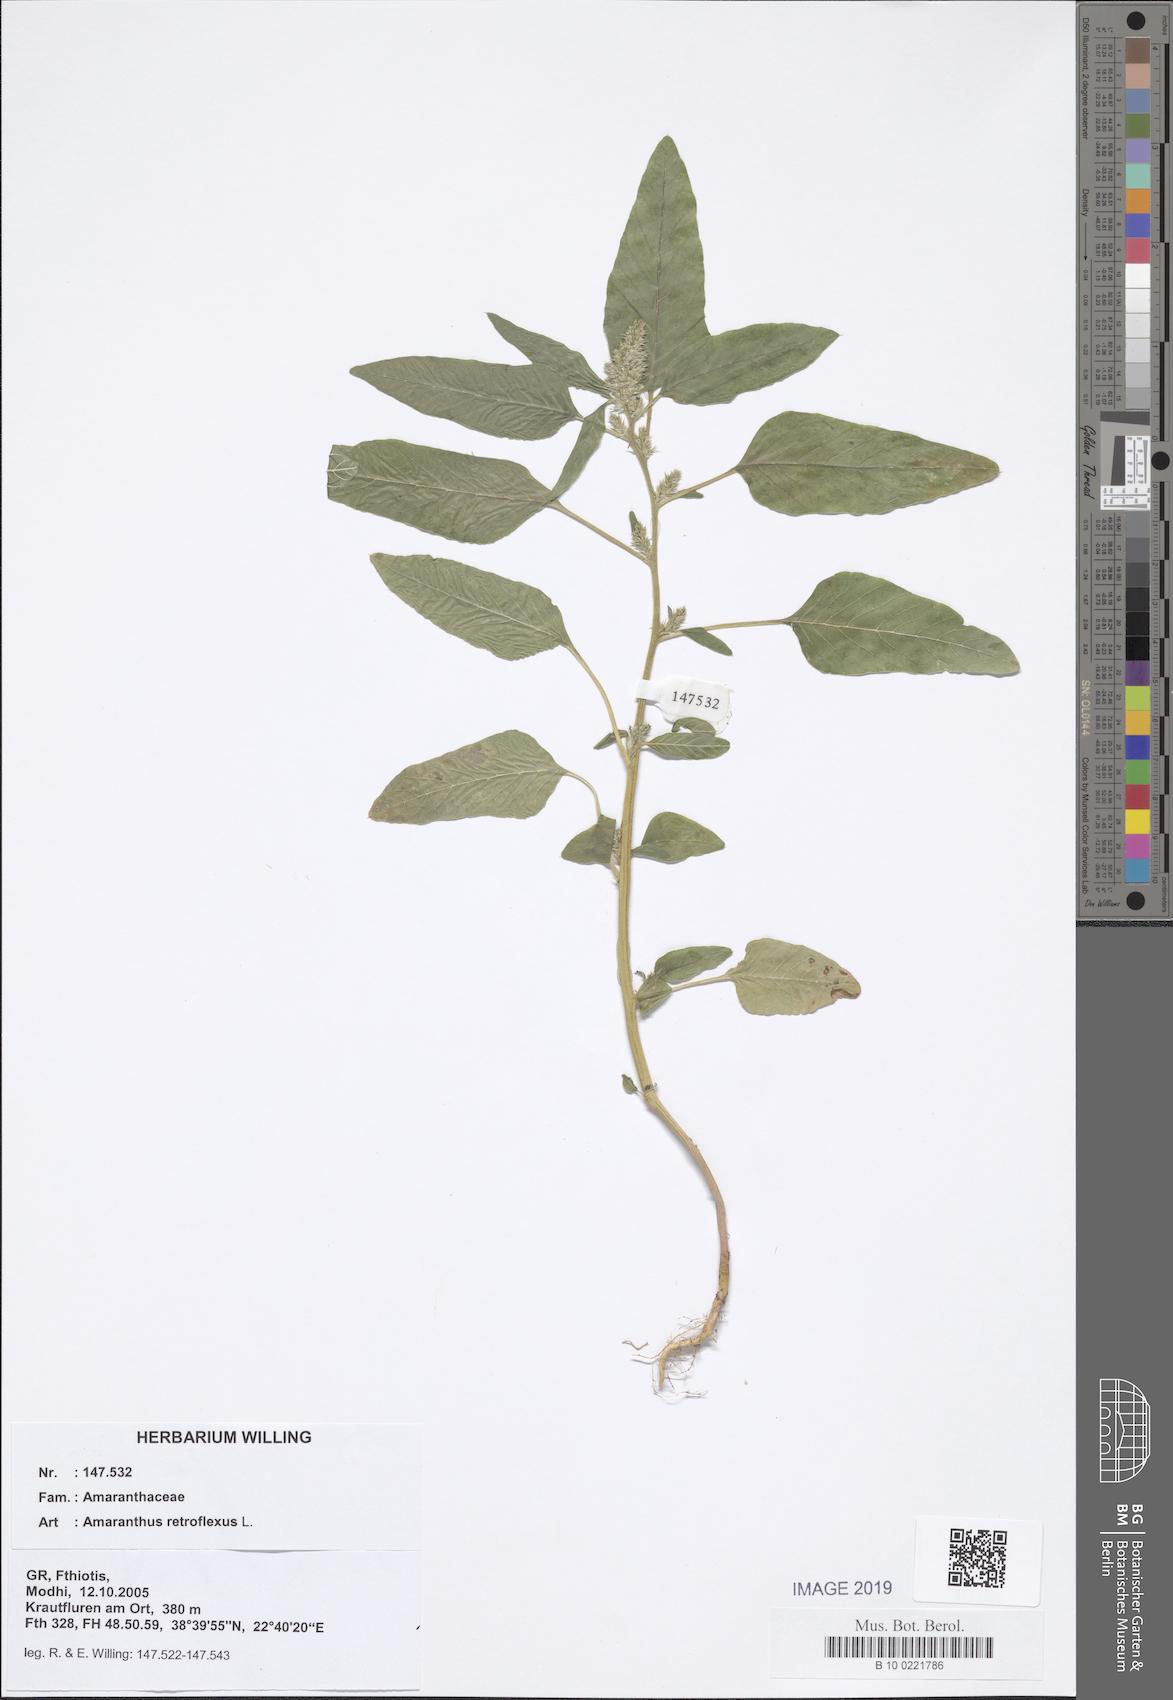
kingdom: Plantae
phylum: Tracheophyta
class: Magnoliopsida
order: Caryophyllales
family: Amaranthaceae
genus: Amaranthus
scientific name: Amaranthus retroflexus
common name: Redroot amaranth
